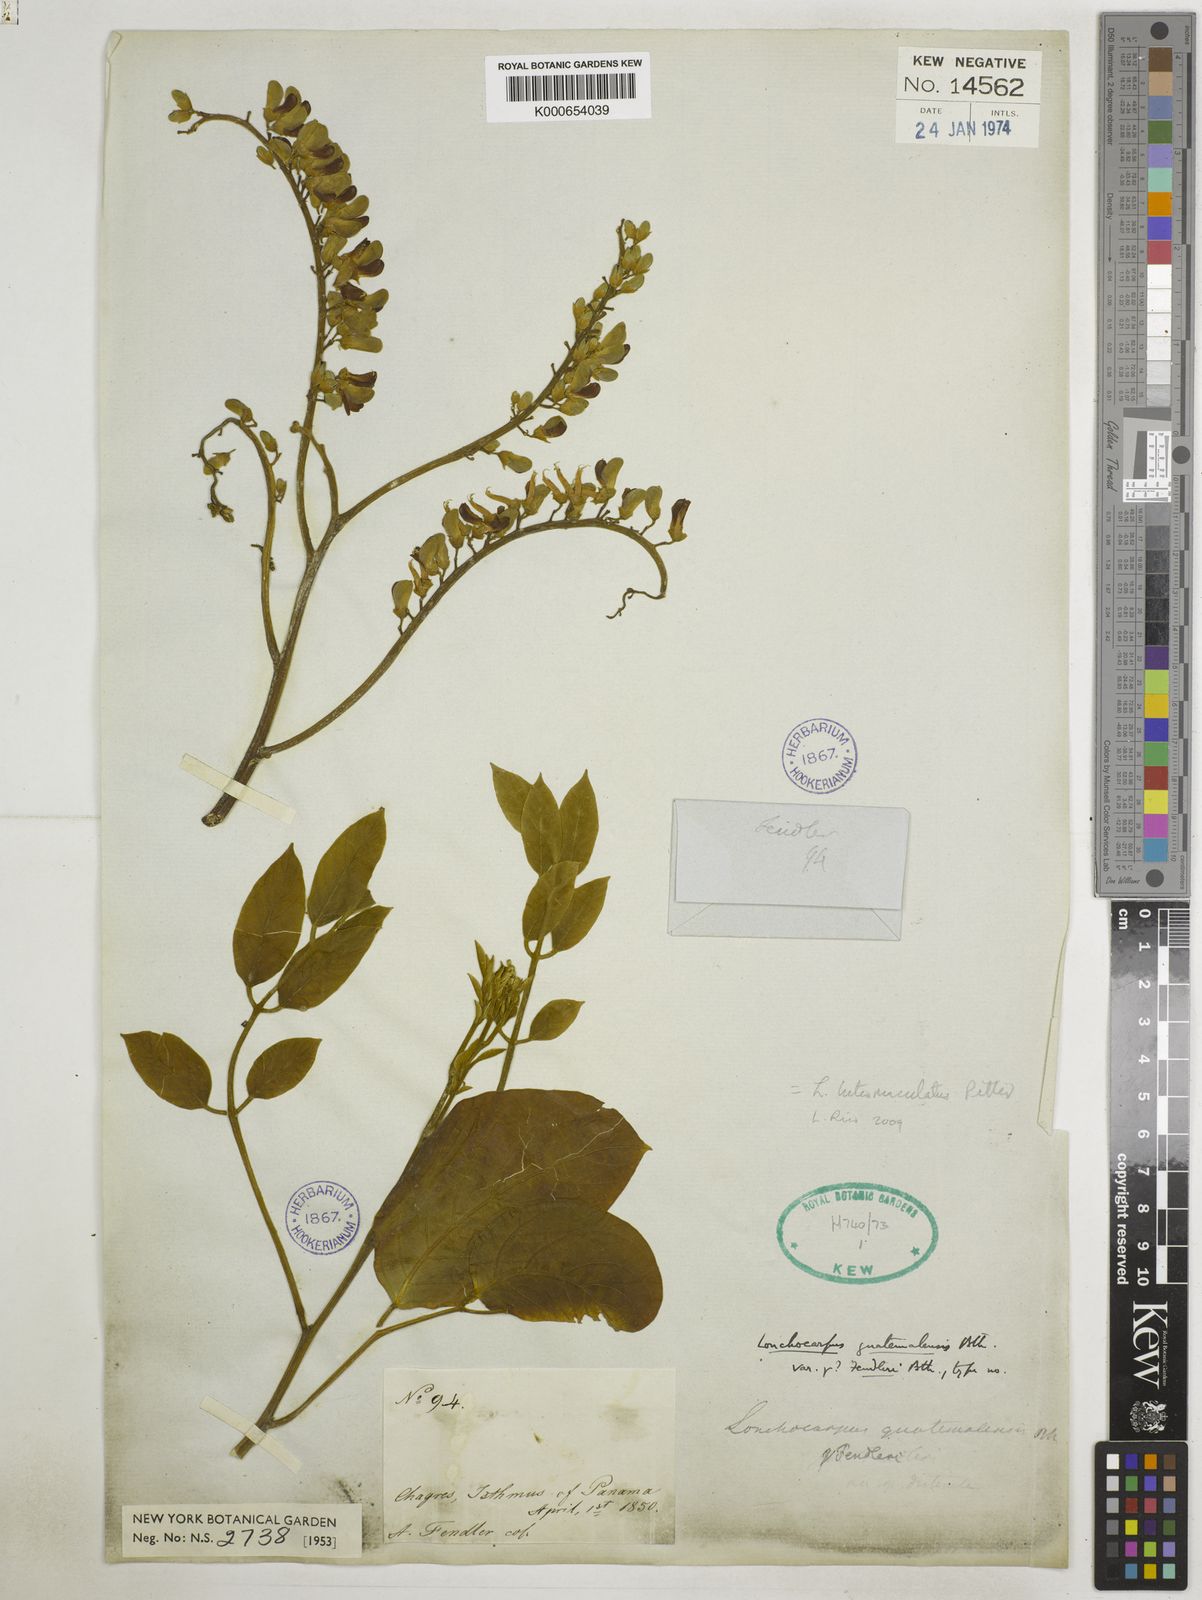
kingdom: Plantae
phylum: Tracheophyta
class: Magnoliopsida
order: Fabales
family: Fabaceae
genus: Lonchocarpus
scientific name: Lonchocarpus luteomaculatus
